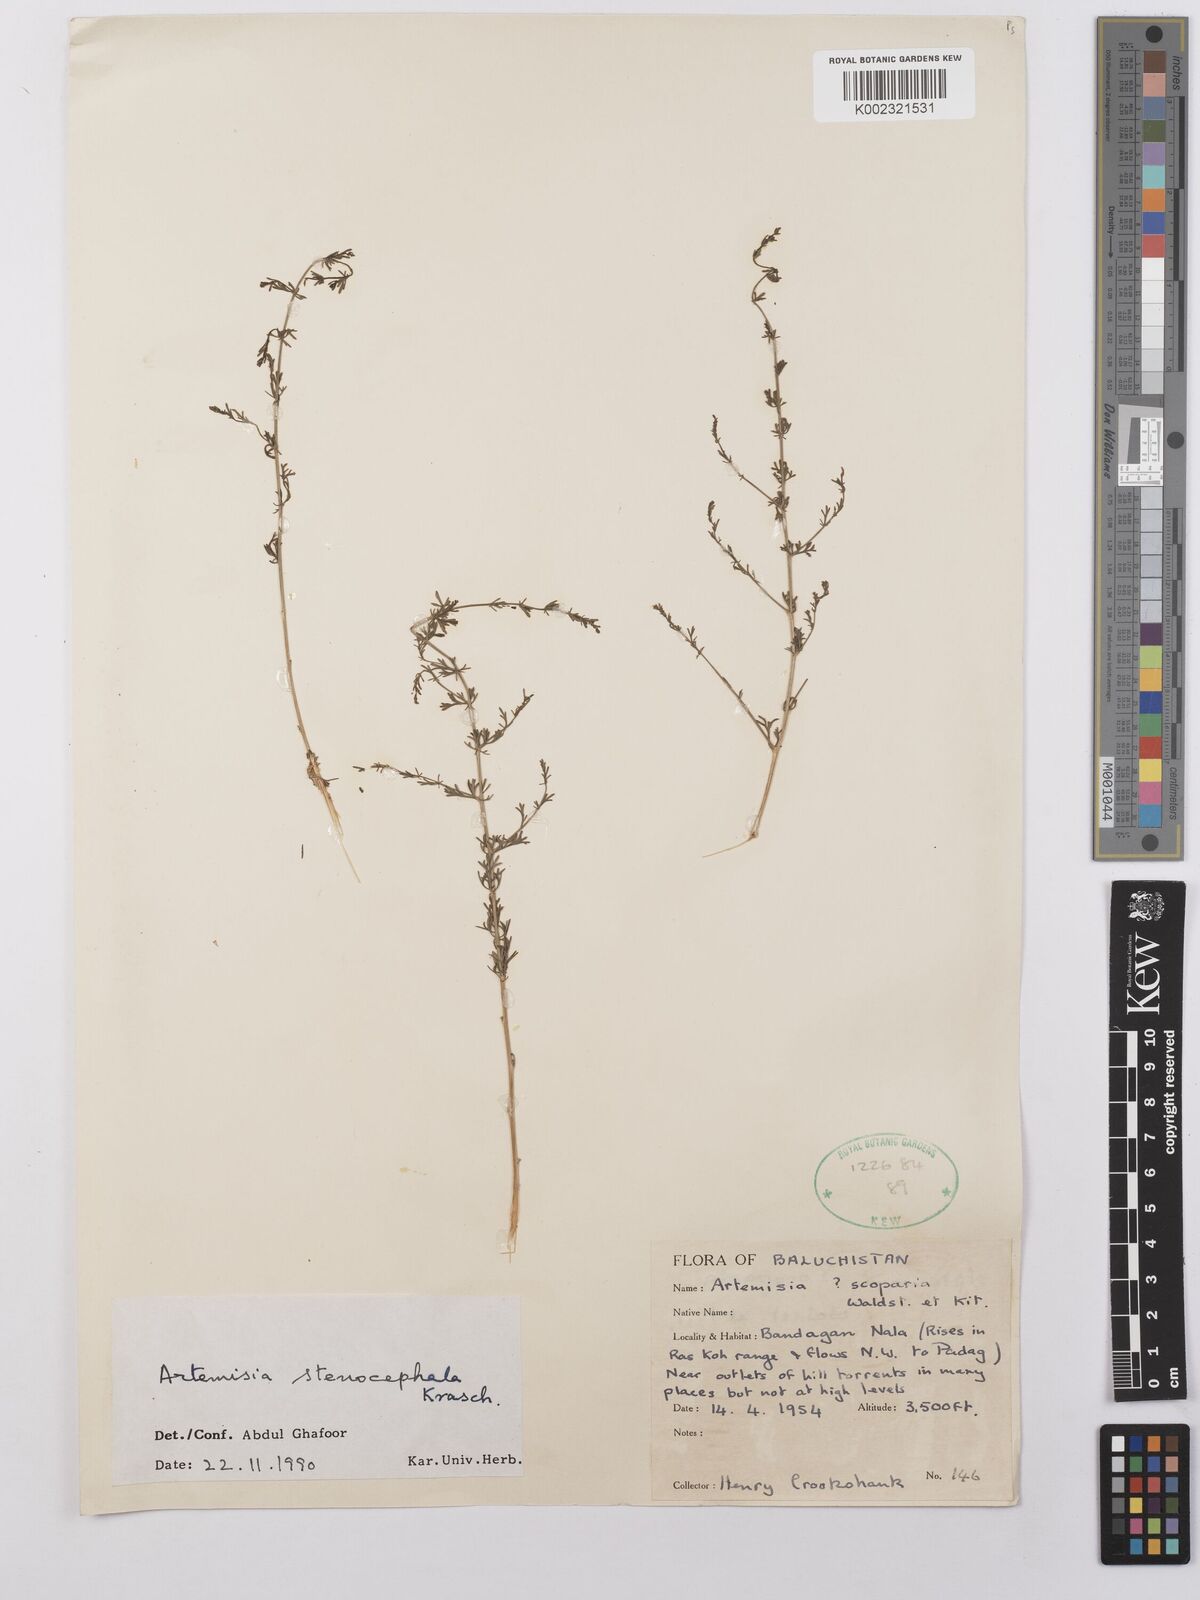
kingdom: Plantae
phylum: Tracheophyta
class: Magnoliopsida
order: Asterales
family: Asteraceae
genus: Artemisia
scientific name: Artemisia stenocephala
